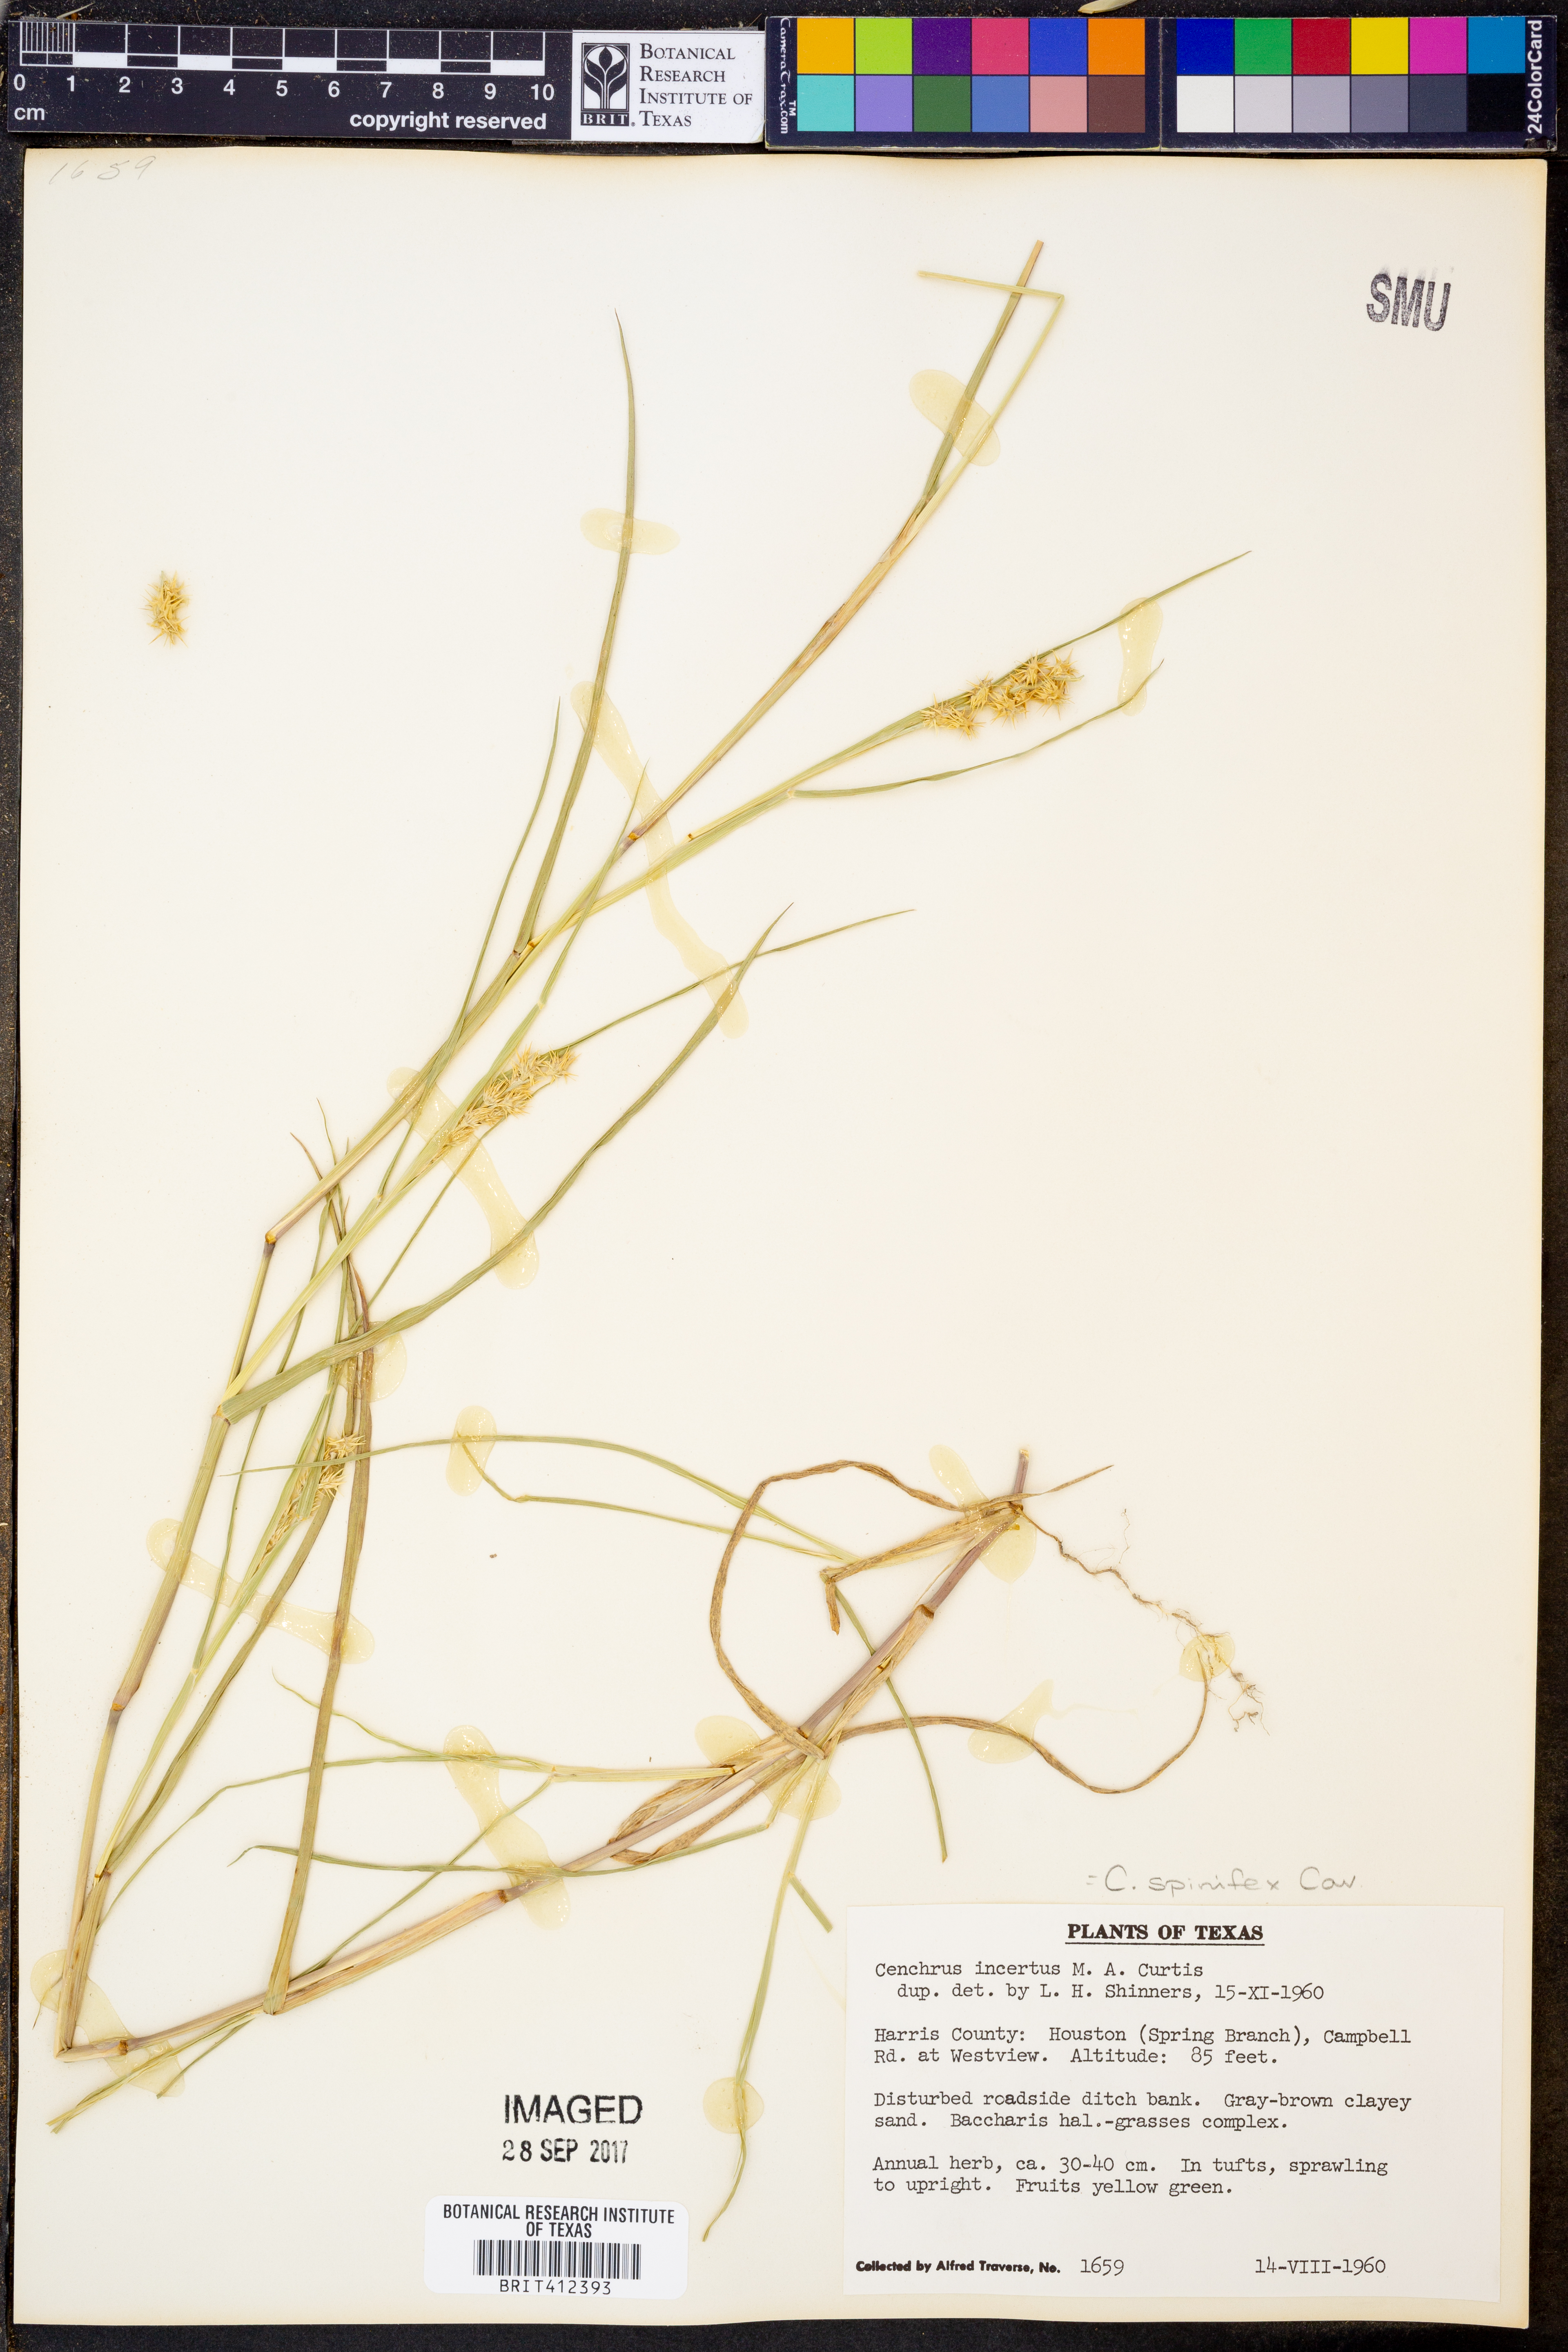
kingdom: Plantae
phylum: Tracheophyta
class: Liliopsida
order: Poales
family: Poaceae
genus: Cenchrus
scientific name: Cenchrus spinifex
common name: Coast sandbur
